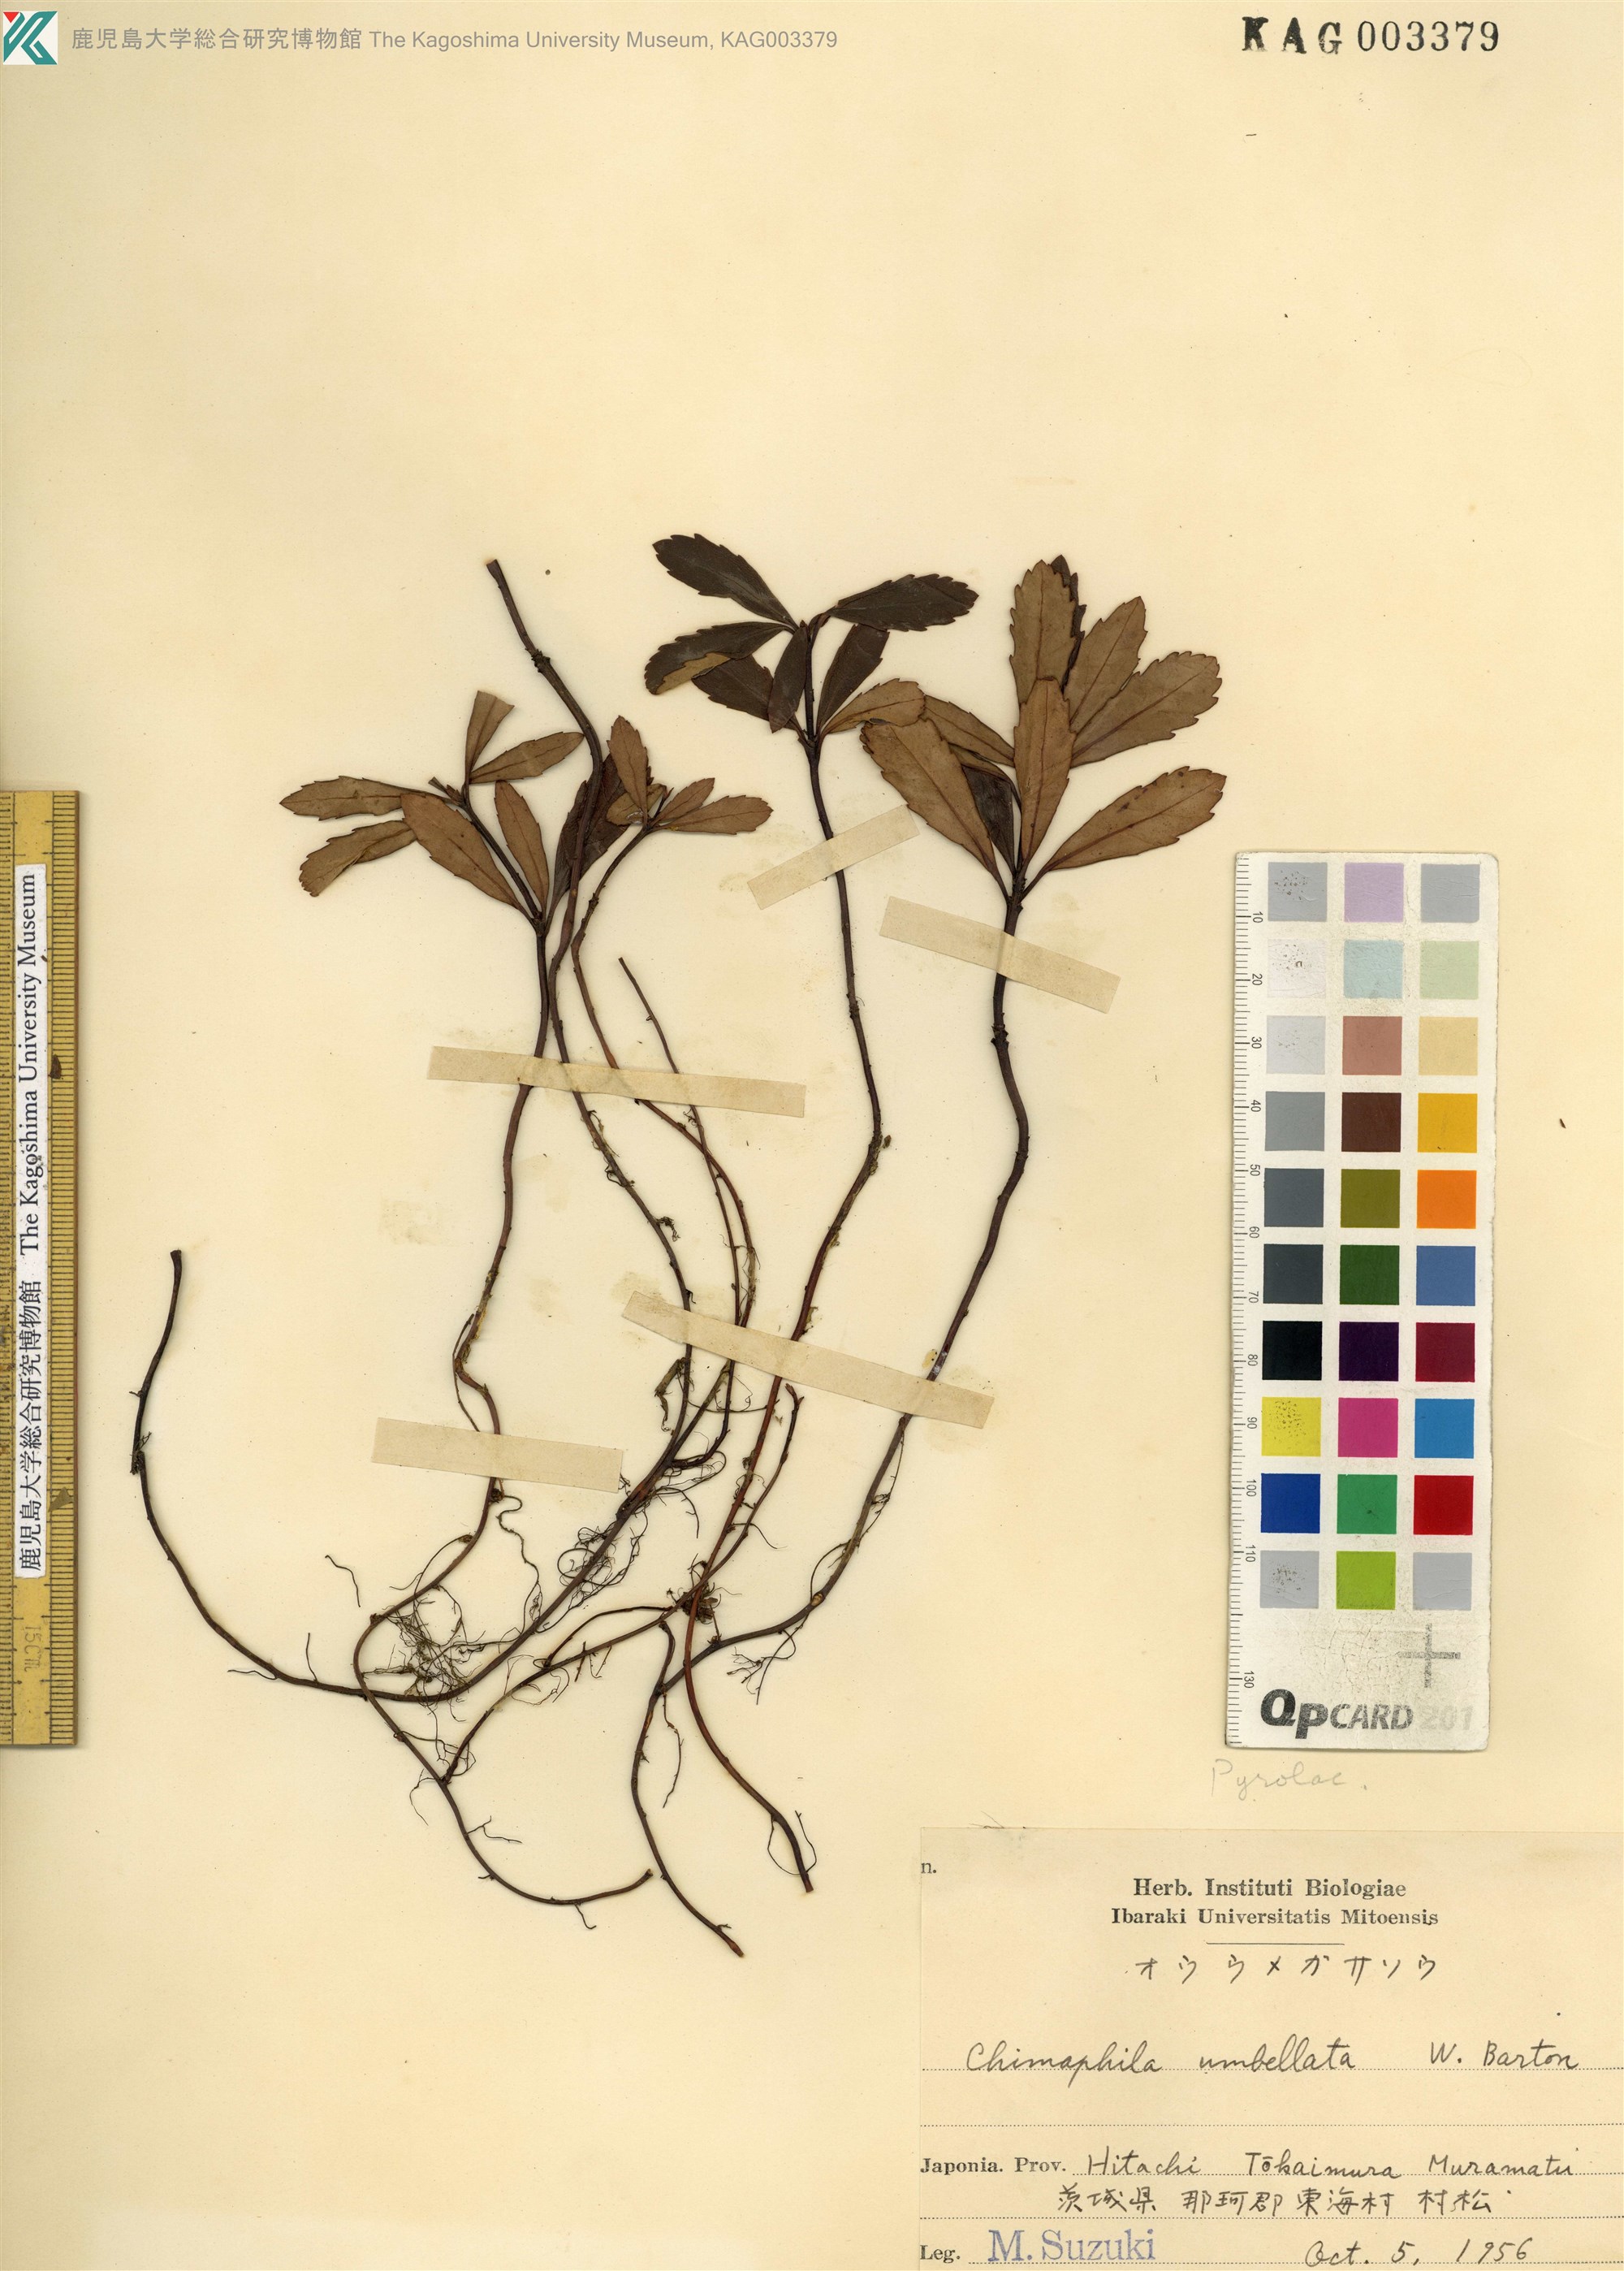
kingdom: Plantae
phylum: Tracheophyta
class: Magnoliopsida
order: Ericales
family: Ericaceae
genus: Chimaphila
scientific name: Chimaphila umbellata
